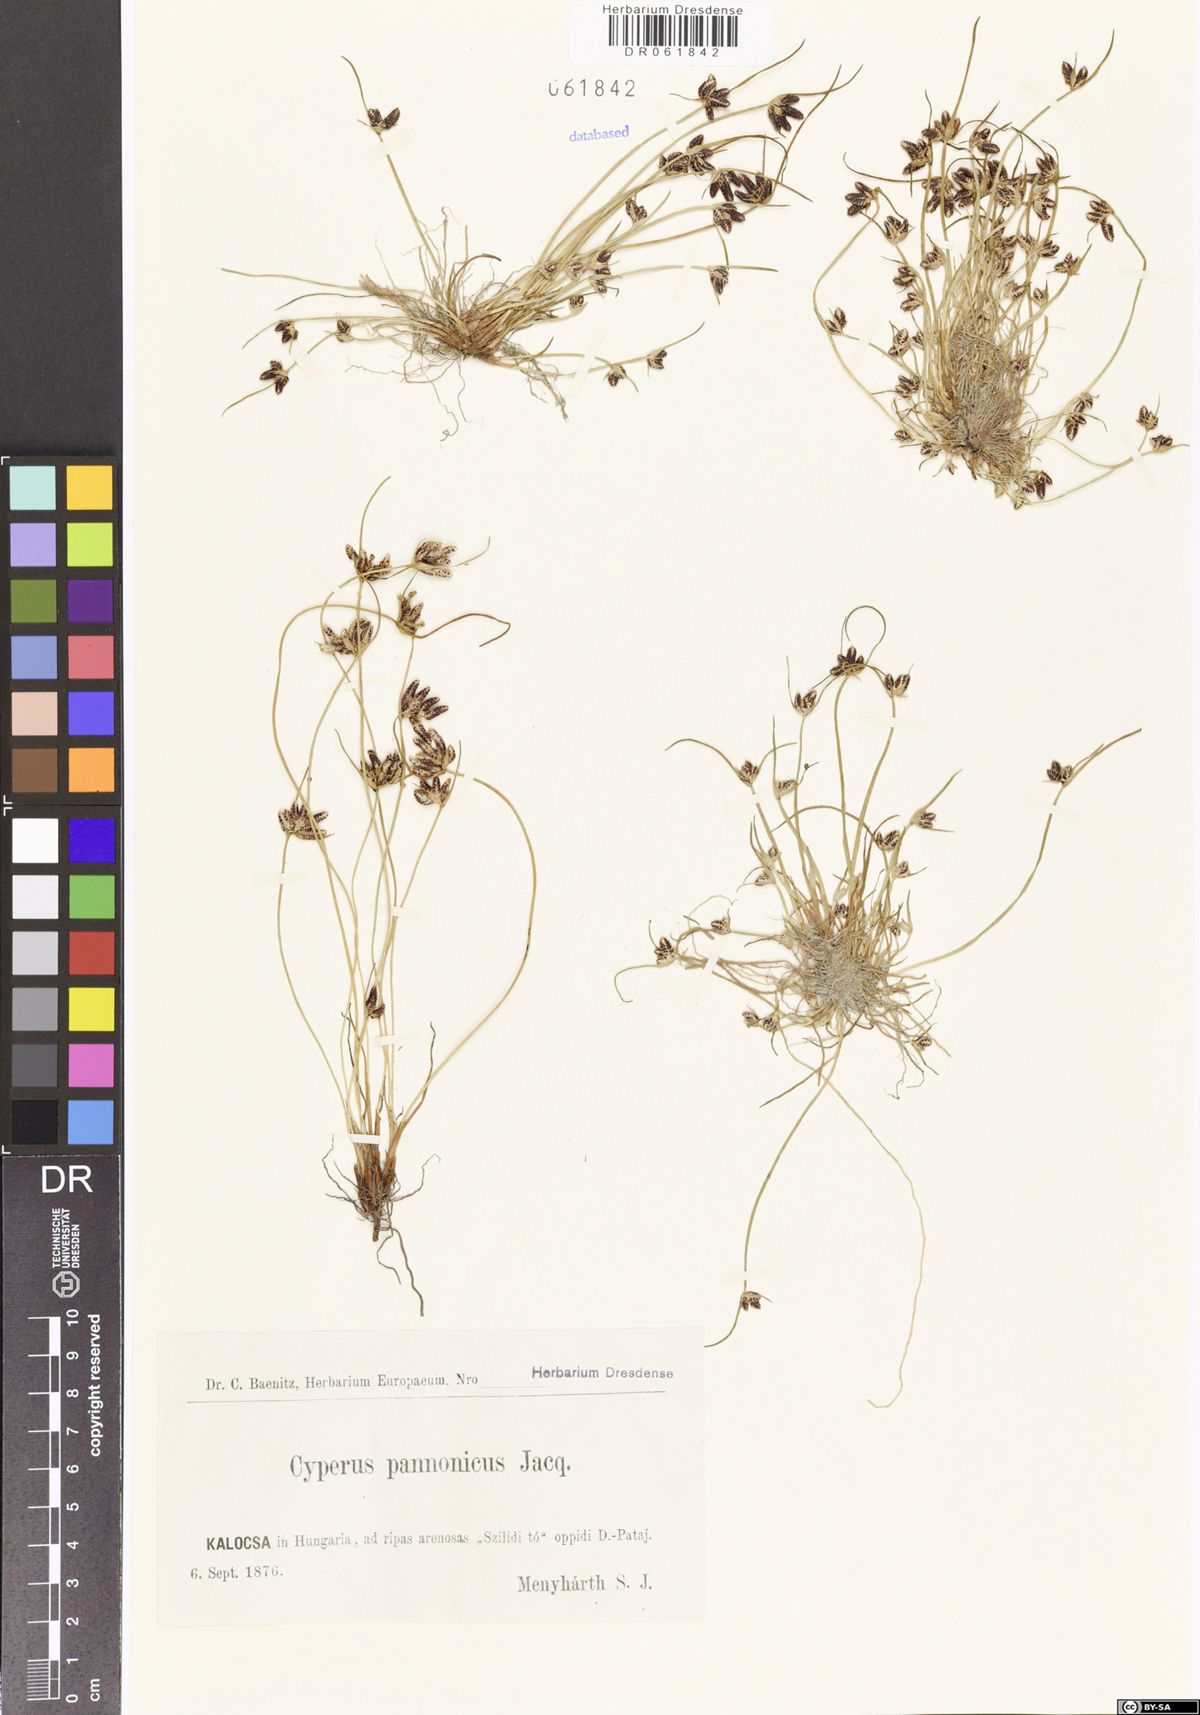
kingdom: Plantae
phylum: Tracheophyta
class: Liliopsida
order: Poales
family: Cyperaceae
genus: Cyperus
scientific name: Cyperus pannonicus
